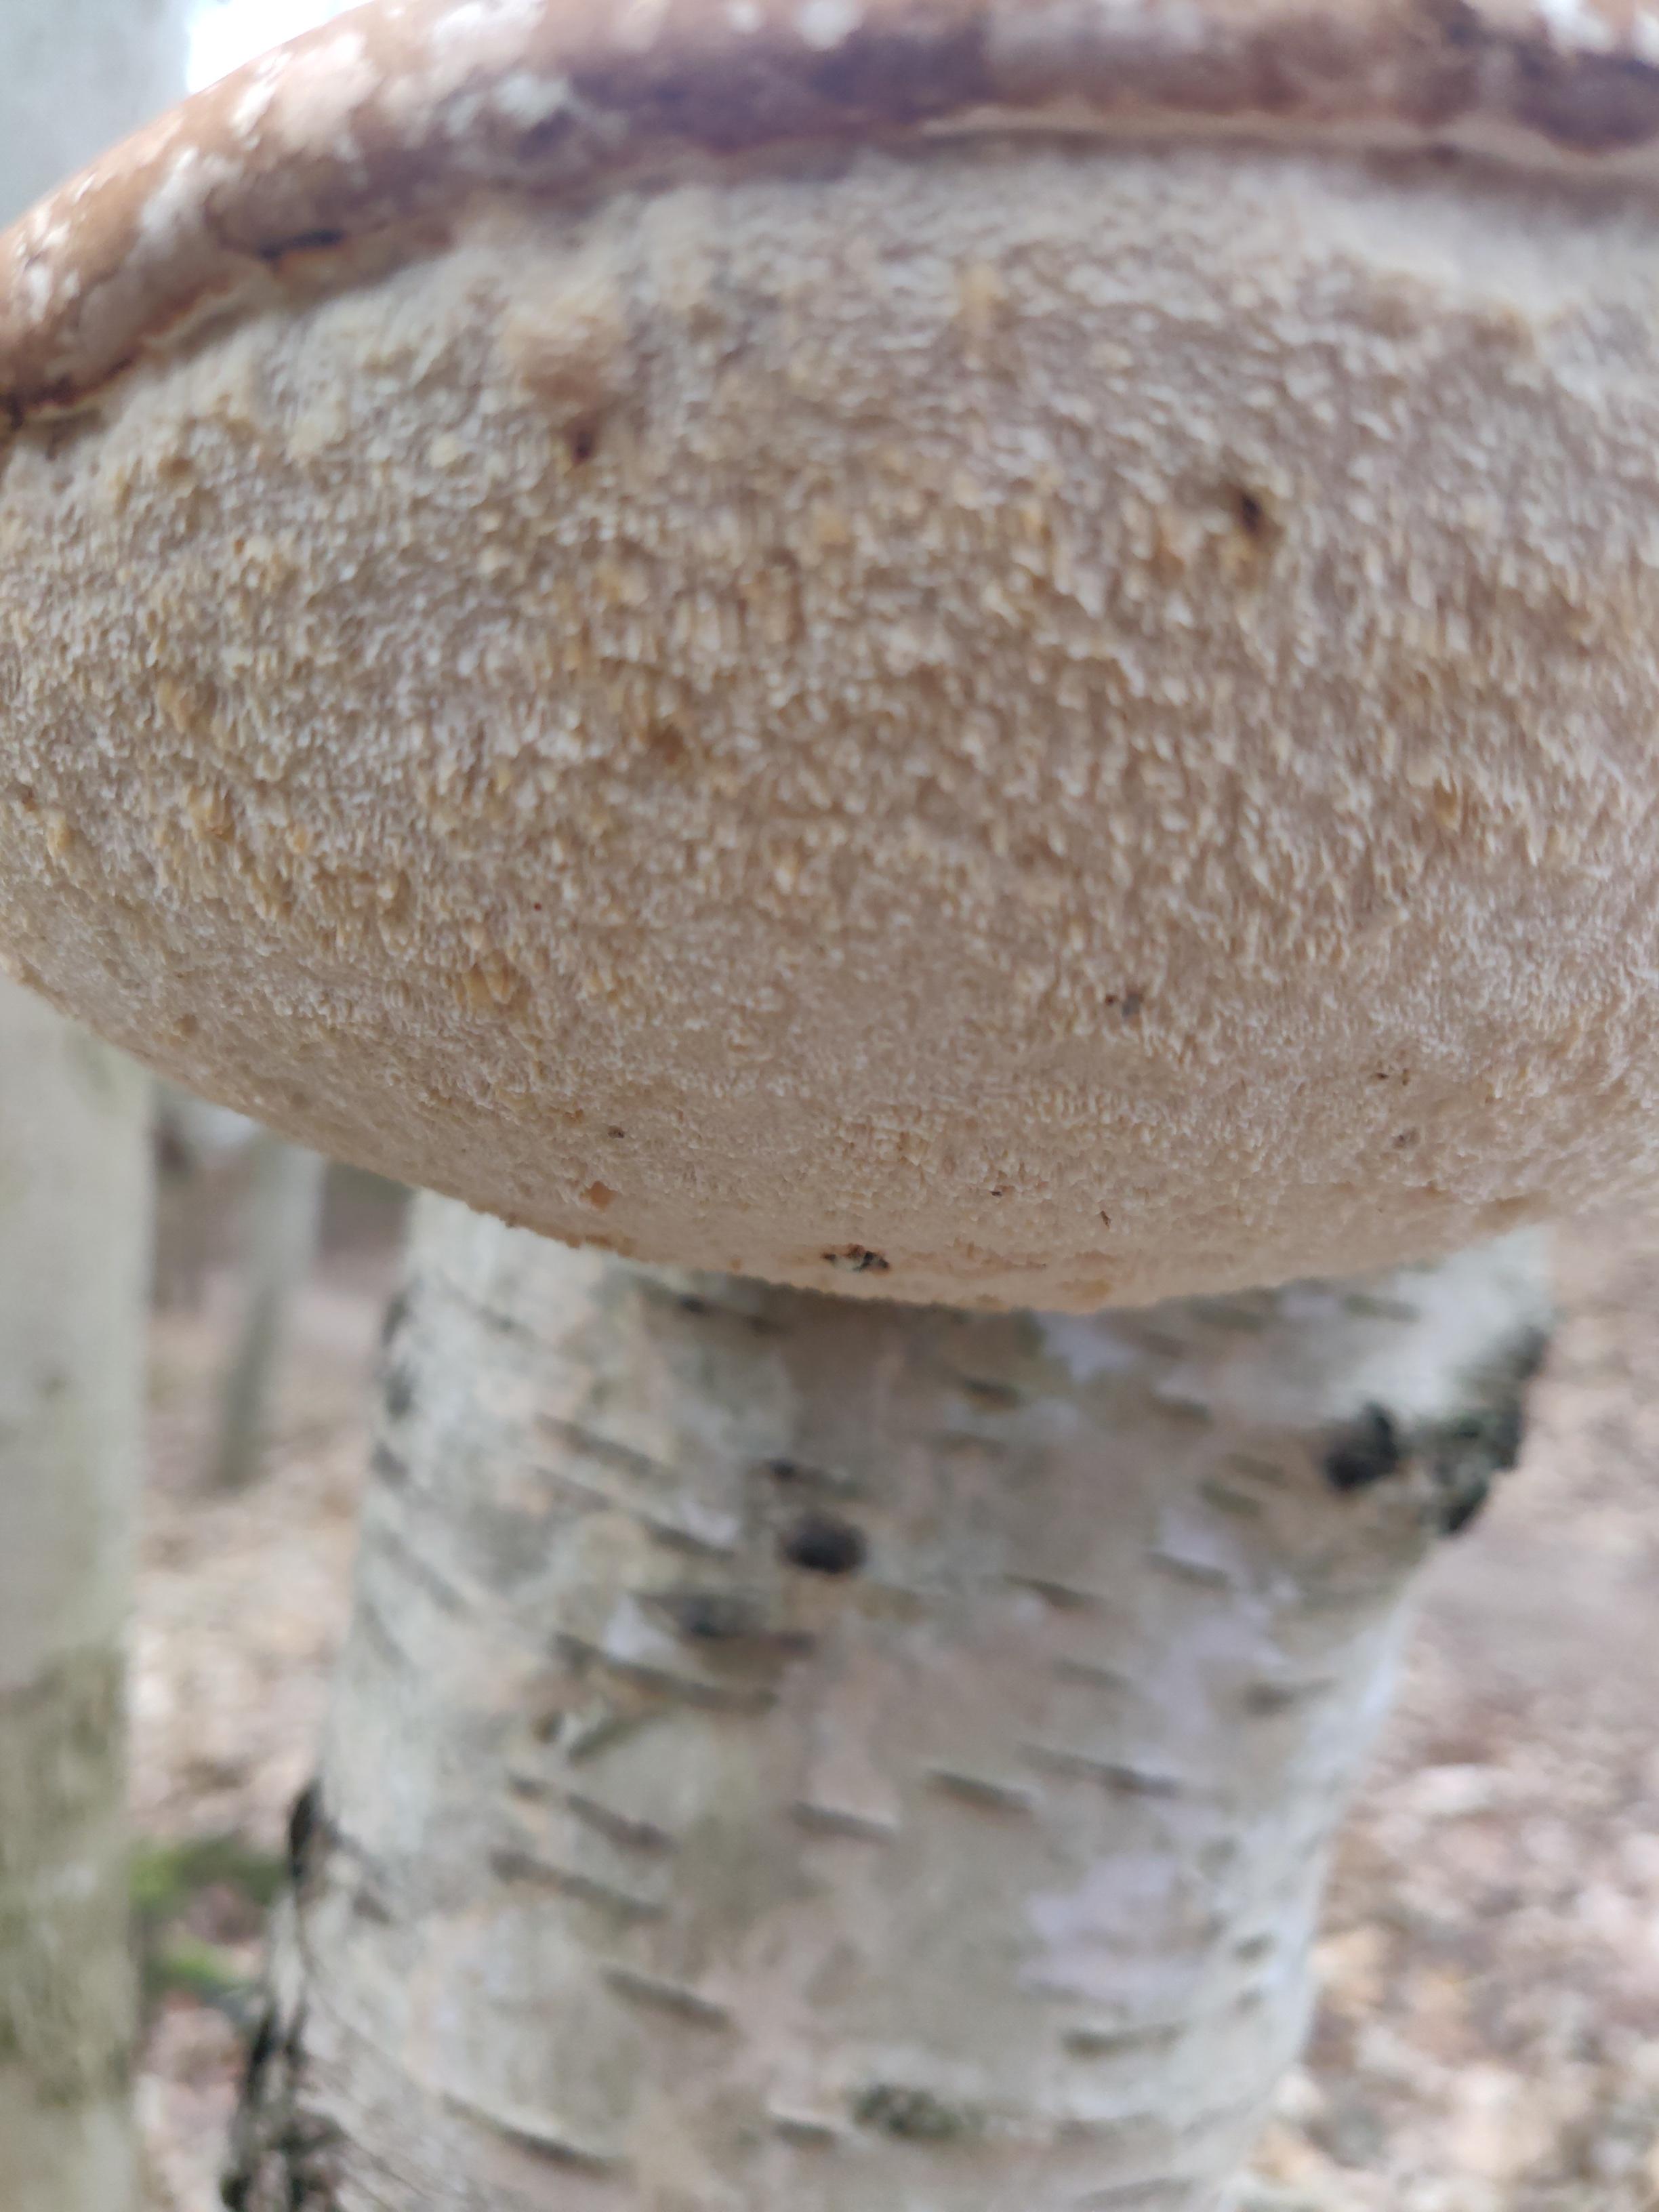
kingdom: Fungi
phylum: Basidiomycota
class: Agaricomycetes
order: Polyporales
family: Fomitopsidaceae
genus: Fomitopsis
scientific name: Fomitopsis betulina
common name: birkeporesvamp
